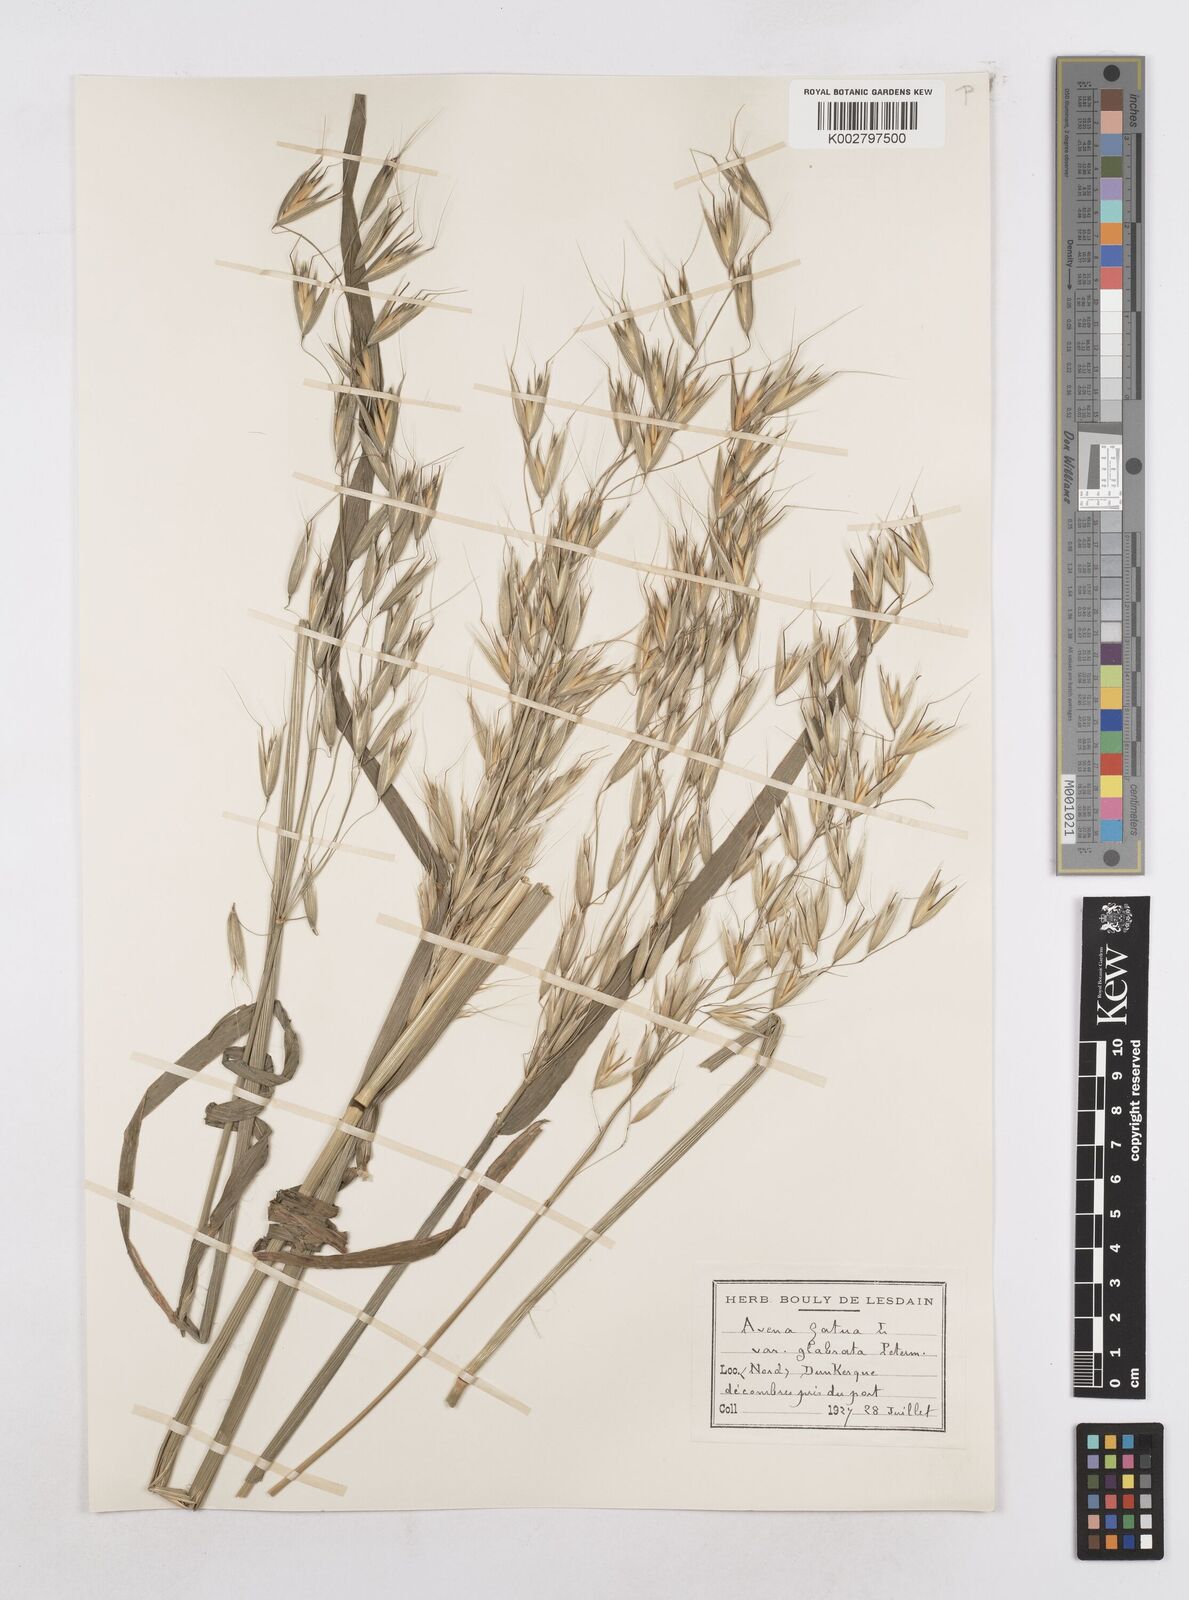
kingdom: Plantae
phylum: Tracheophyta
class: Liliopsida
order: Poales
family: Poaceae
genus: Avena
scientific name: Avena fatua
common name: Wild oat
